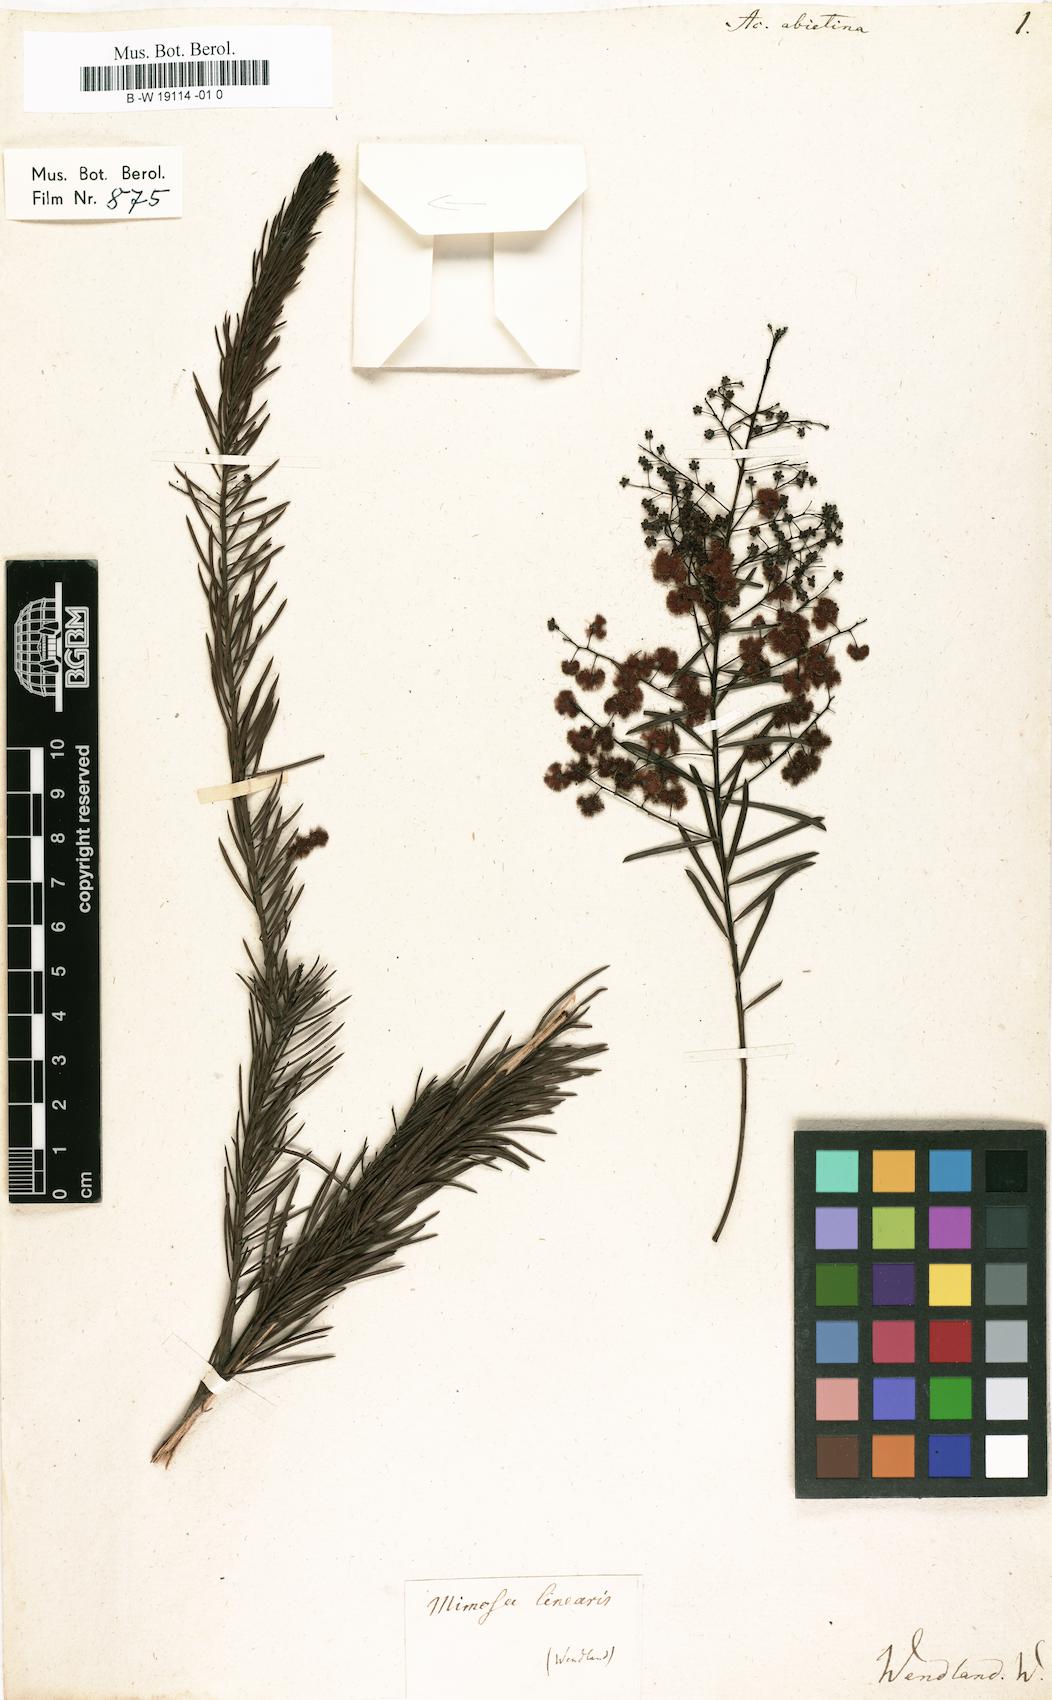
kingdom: Plantae
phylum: Tracheophyta
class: Magnoliopsida
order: Fabales
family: Fabaceae
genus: Acacia
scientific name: Acacia linifolia
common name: White wattle
